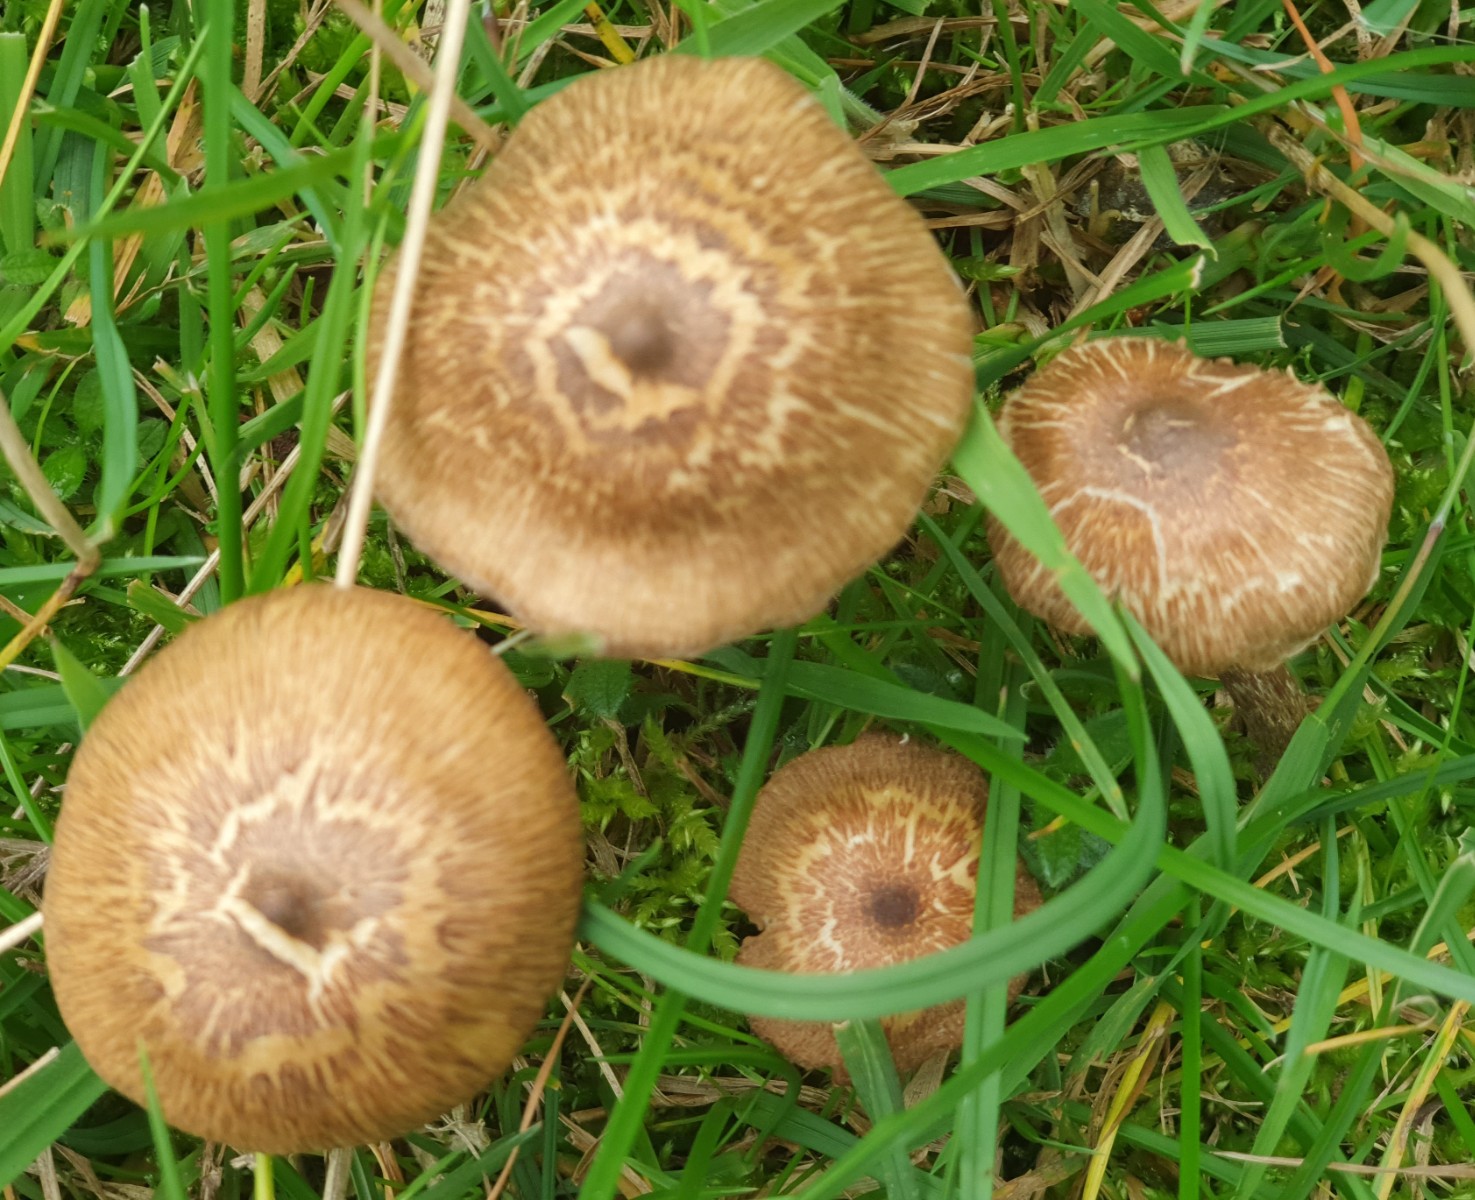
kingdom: Fungi
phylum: Basidiomycota
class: Agaricomycetes
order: Agaricales
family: Inocybaceae
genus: Inocybe
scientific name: Inocybe
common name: trævlhat
